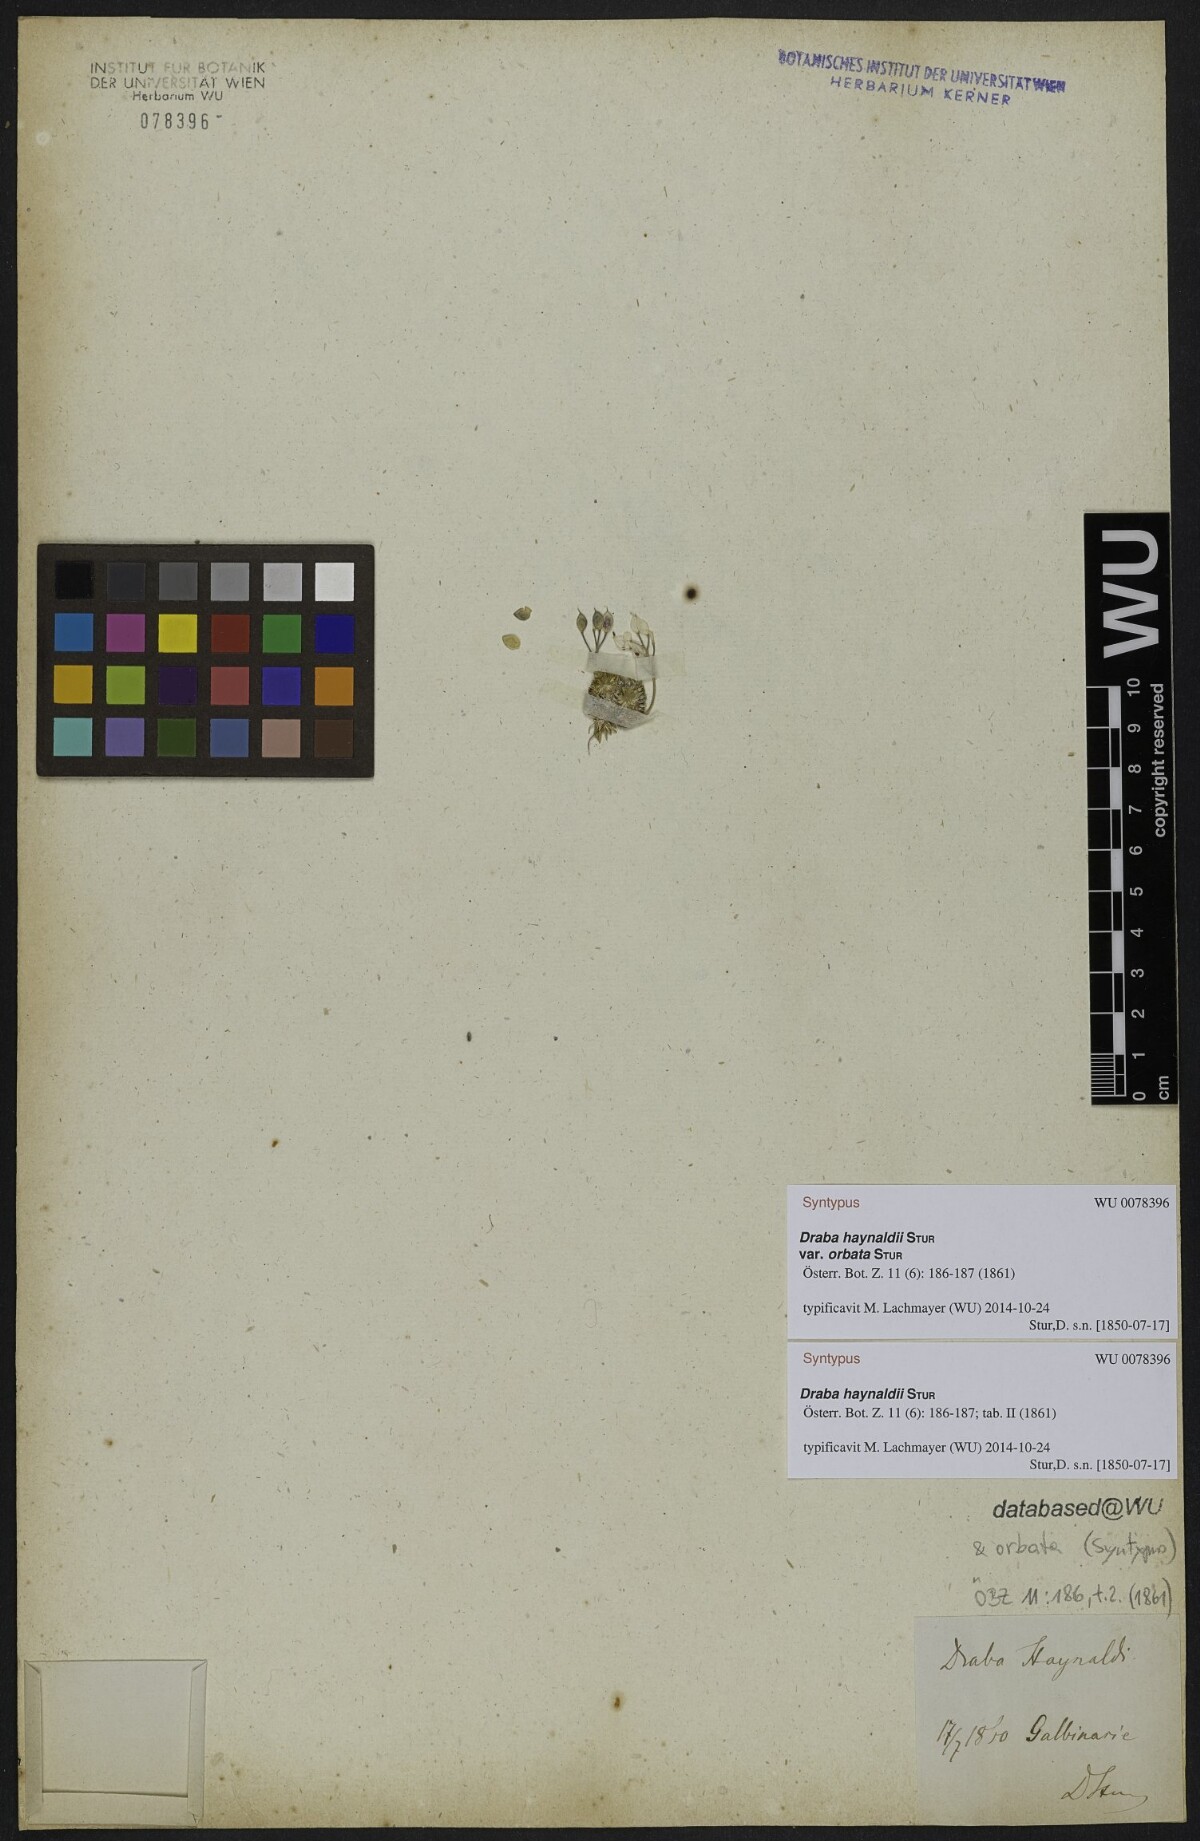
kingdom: Plantae
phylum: Tracheophyta
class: Magnoliopsida
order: Brassicales
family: Brassicaceae
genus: Draba
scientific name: Draba haynaldii
